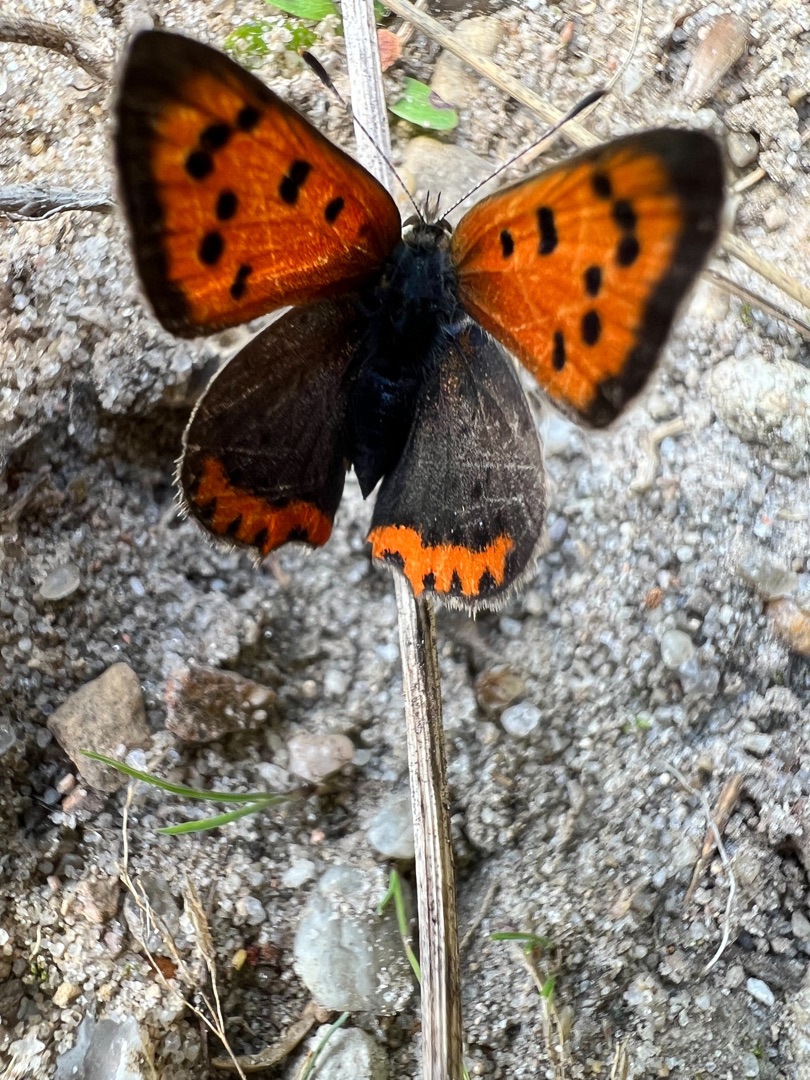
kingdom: Animalia
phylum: Arthropoda
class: Insecta
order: Lepidoptera
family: Lycaenidae
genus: Lycaena
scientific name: Lycaena phlaeas
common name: Lille ildfugl
